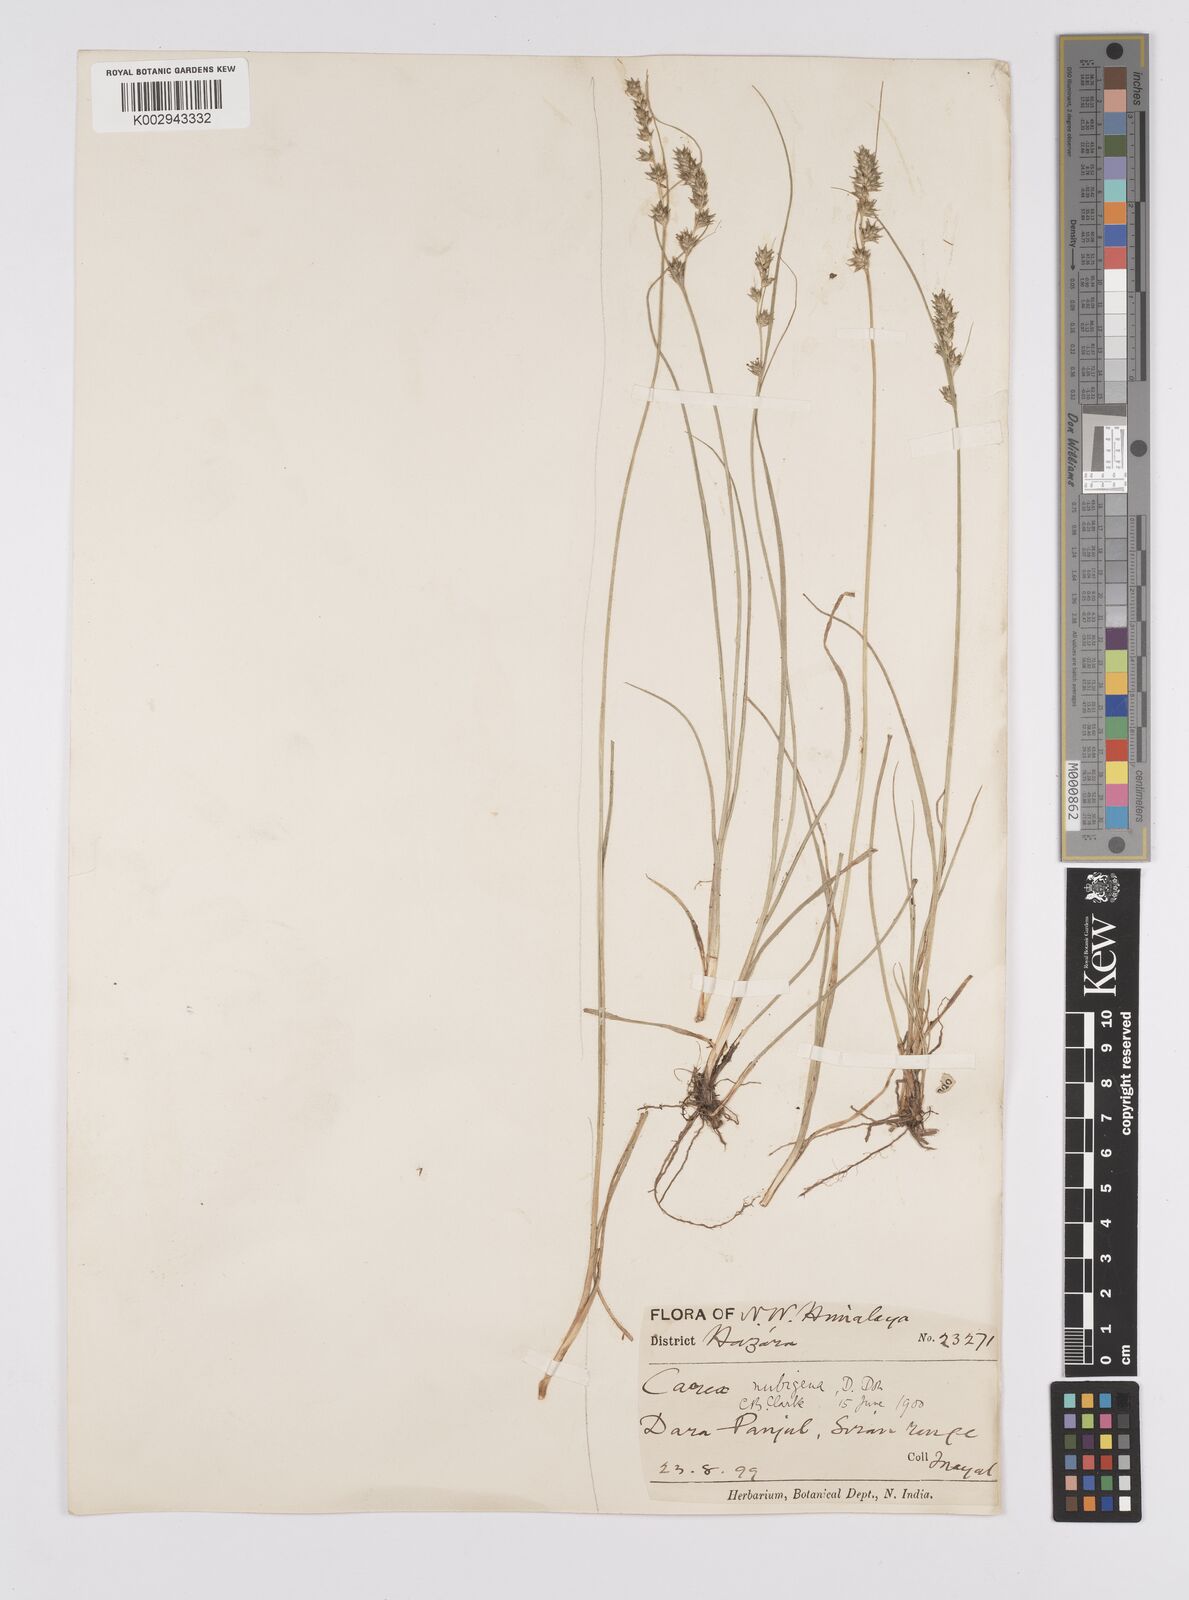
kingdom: Plantae
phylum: Tracheophyta
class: Liliopsida
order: Poales
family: Cyperaceae
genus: Carex
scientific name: Carex nubigena
